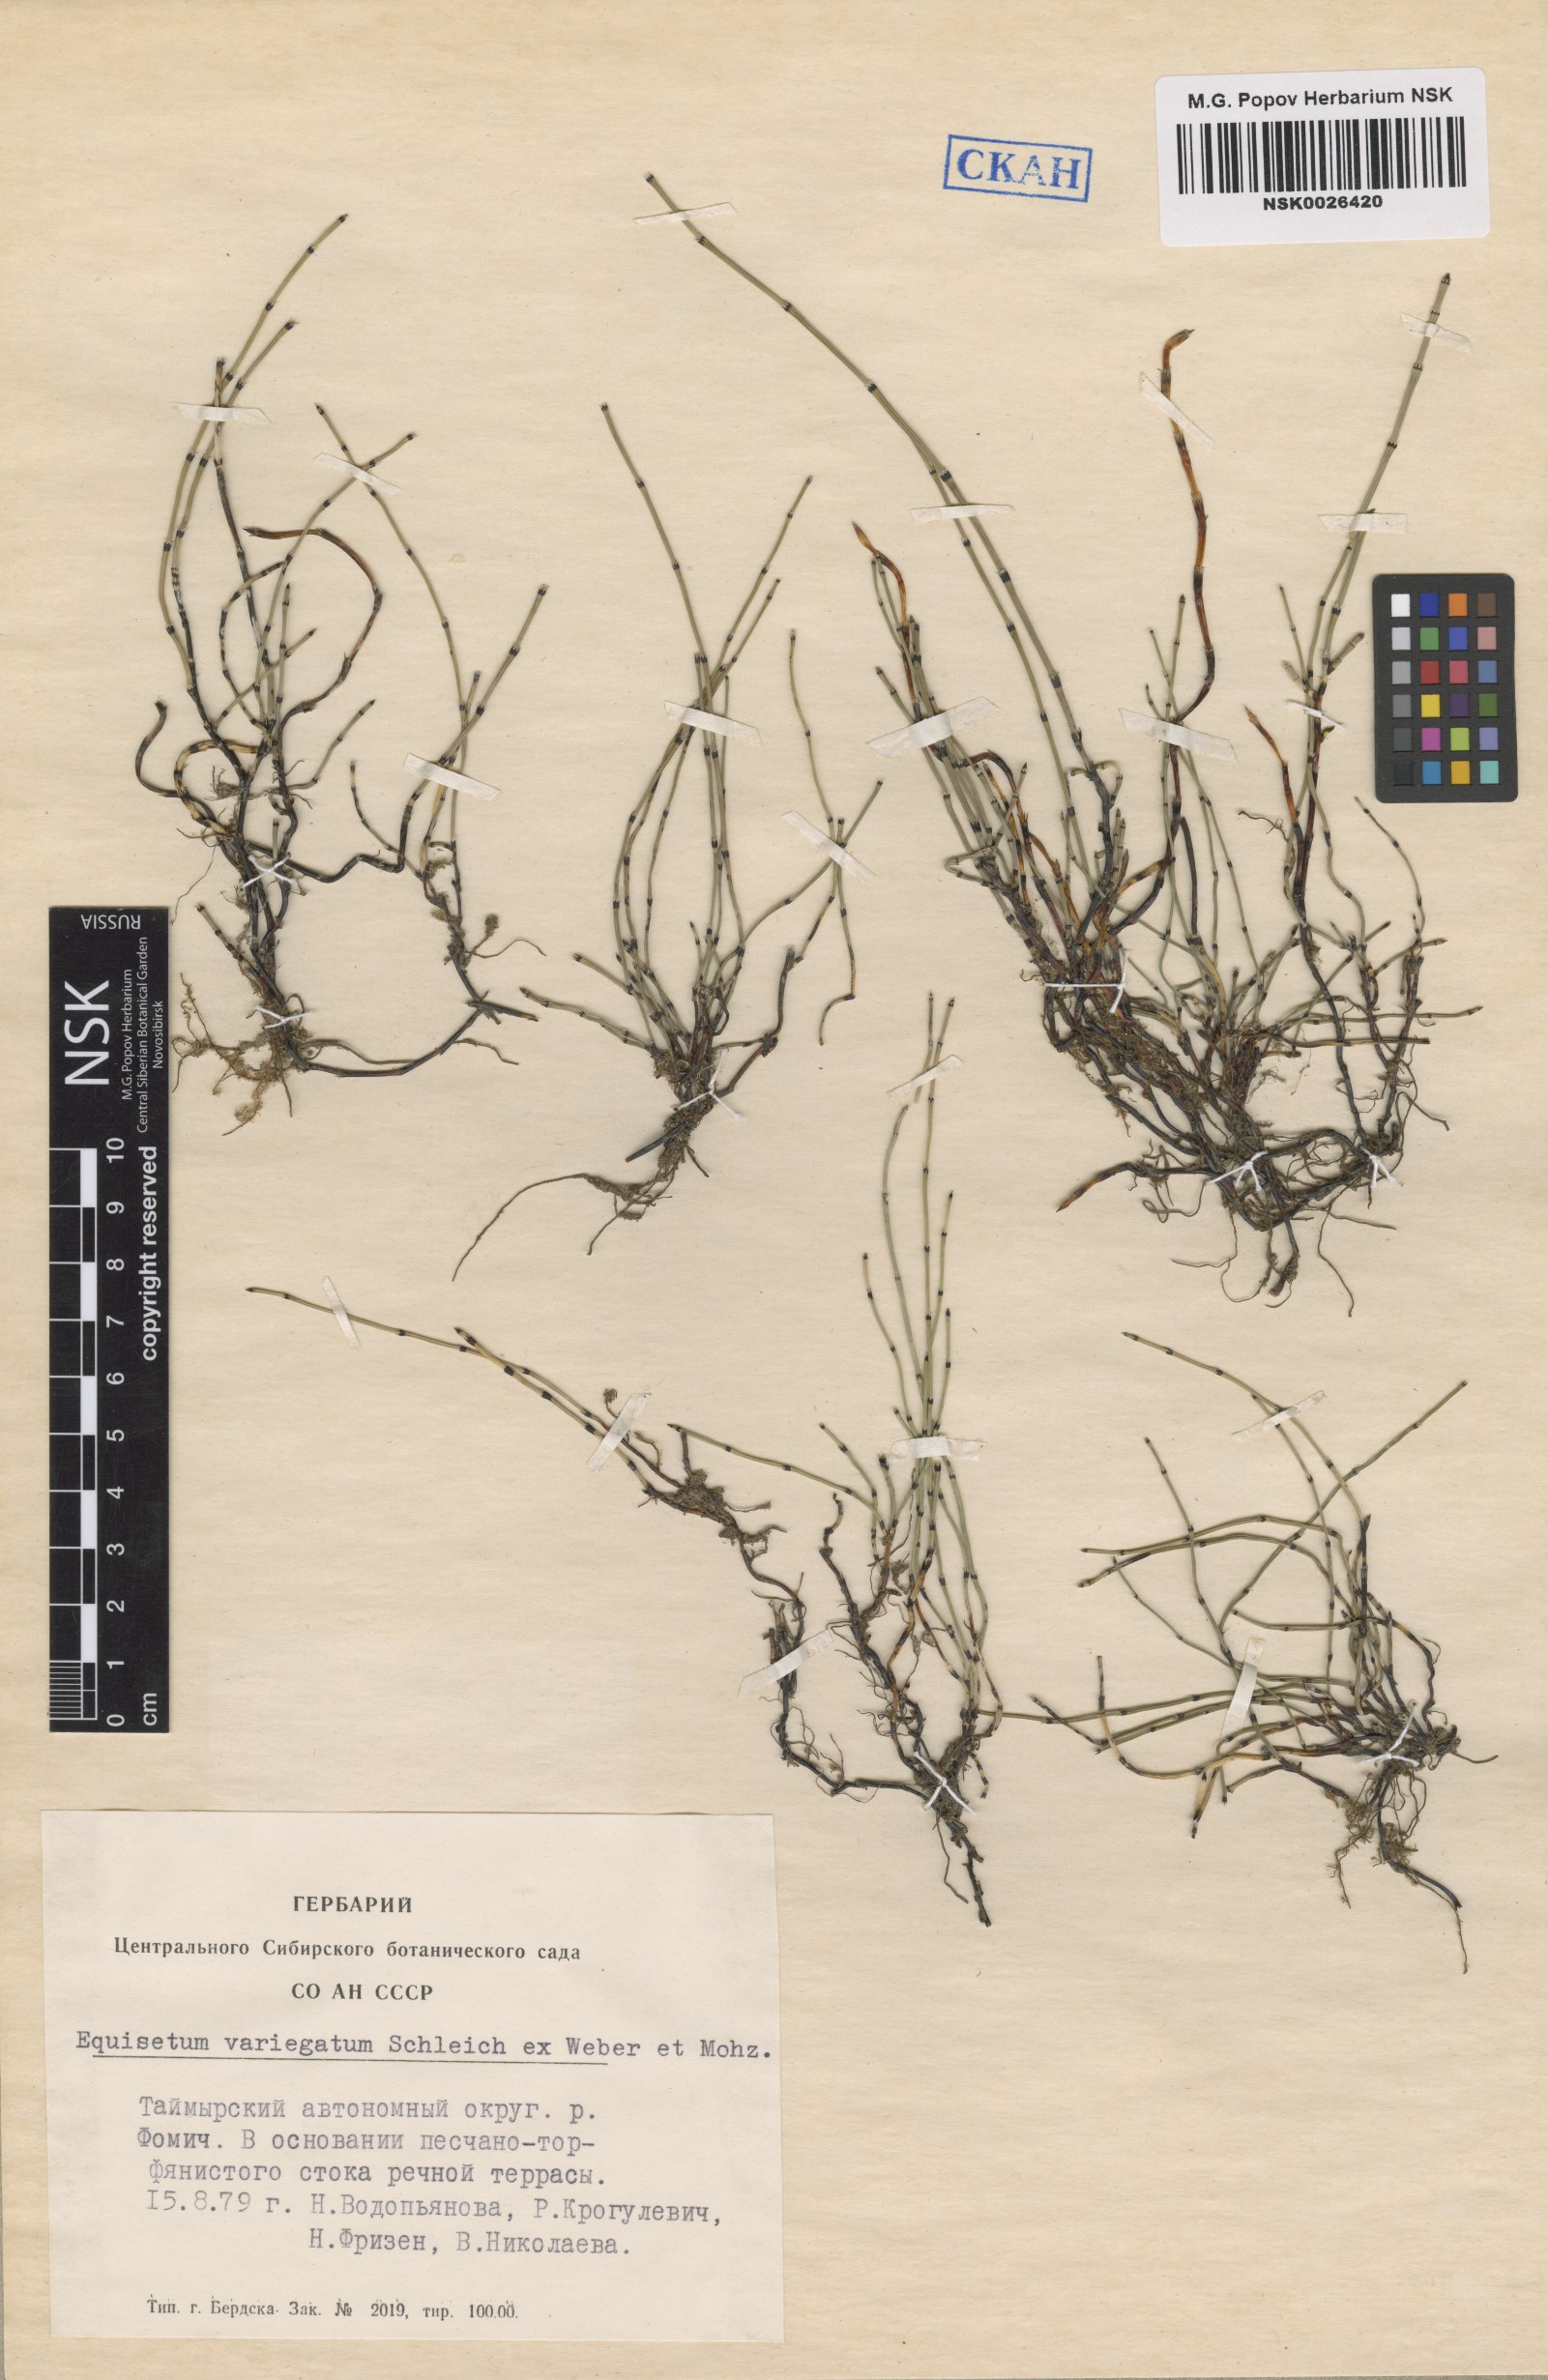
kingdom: Plantae
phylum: Tracheophyta
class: Polypodiopsida
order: Equisetales
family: Equisetaceae
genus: Equisetum
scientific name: Equisetum variegatum
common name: Variegated horsetail
